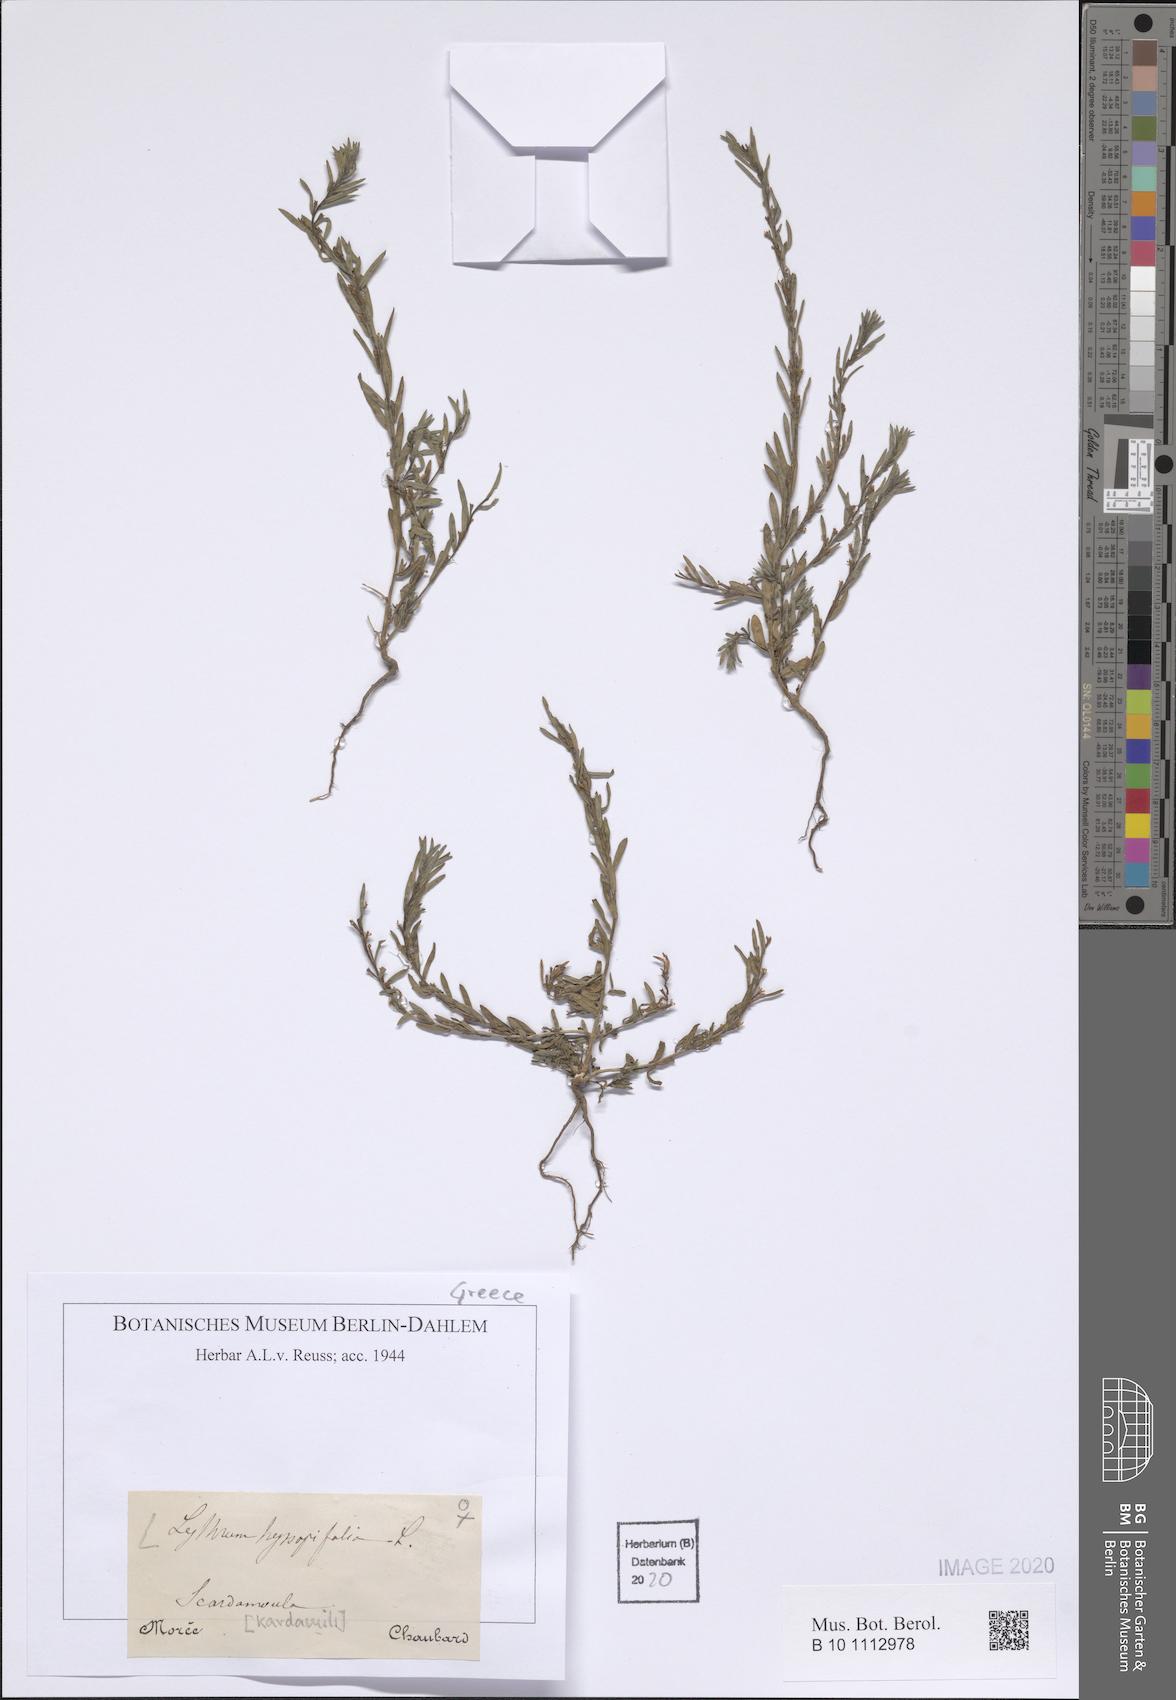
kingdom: Plantae
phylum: Tracheophyta
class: Magnoliopsida
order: Myrtales
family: Lythraceae
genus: Lythrum
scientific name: Lythrum hyssopifolia
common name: Grass-poly
